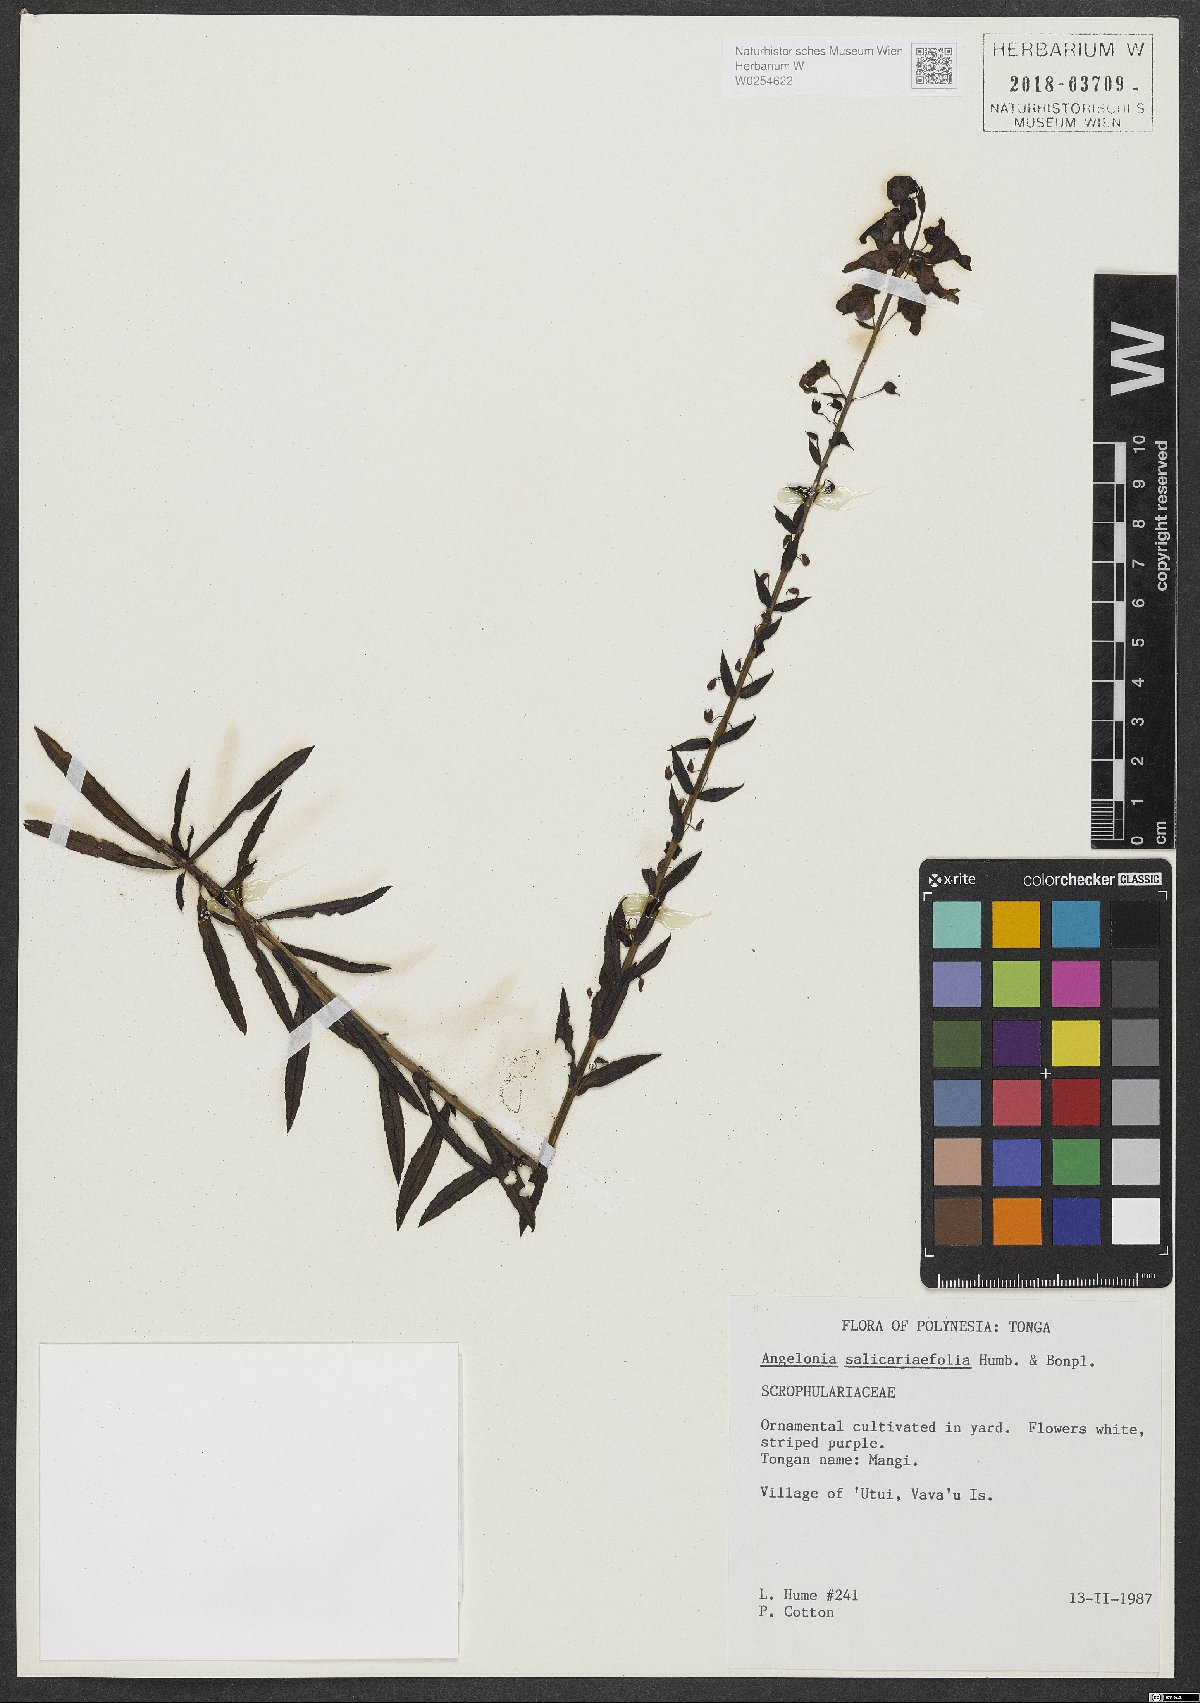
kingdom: Plantae
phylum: Tracheophyta
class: Magnoliopsida
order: Lamiales
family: Plantaginaceae
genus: Angelonia
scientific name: Angelonia salicariifolia
